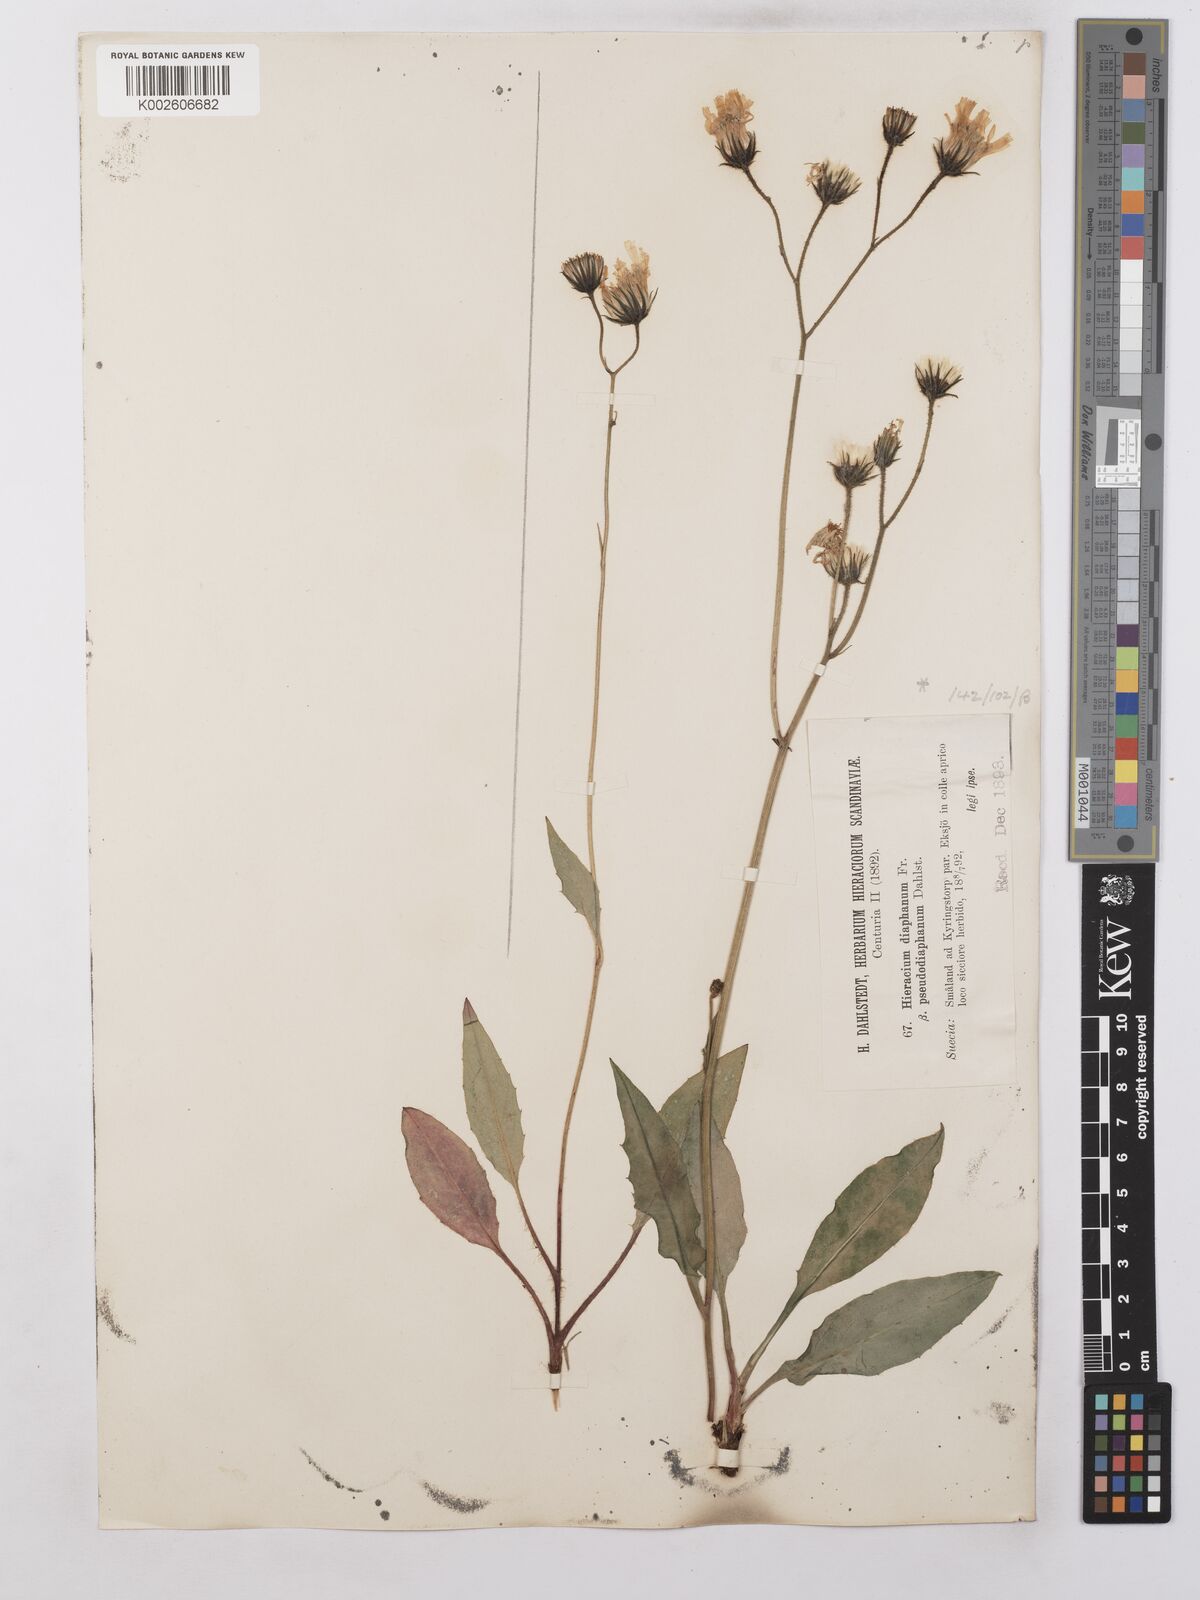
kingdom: Plantae
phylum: Tracheophyta
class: Magnoliopsida
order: Asterales
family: Asteraceae
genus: Hieracium
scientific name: Hieracium lachenalii
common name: Common hawkweed
